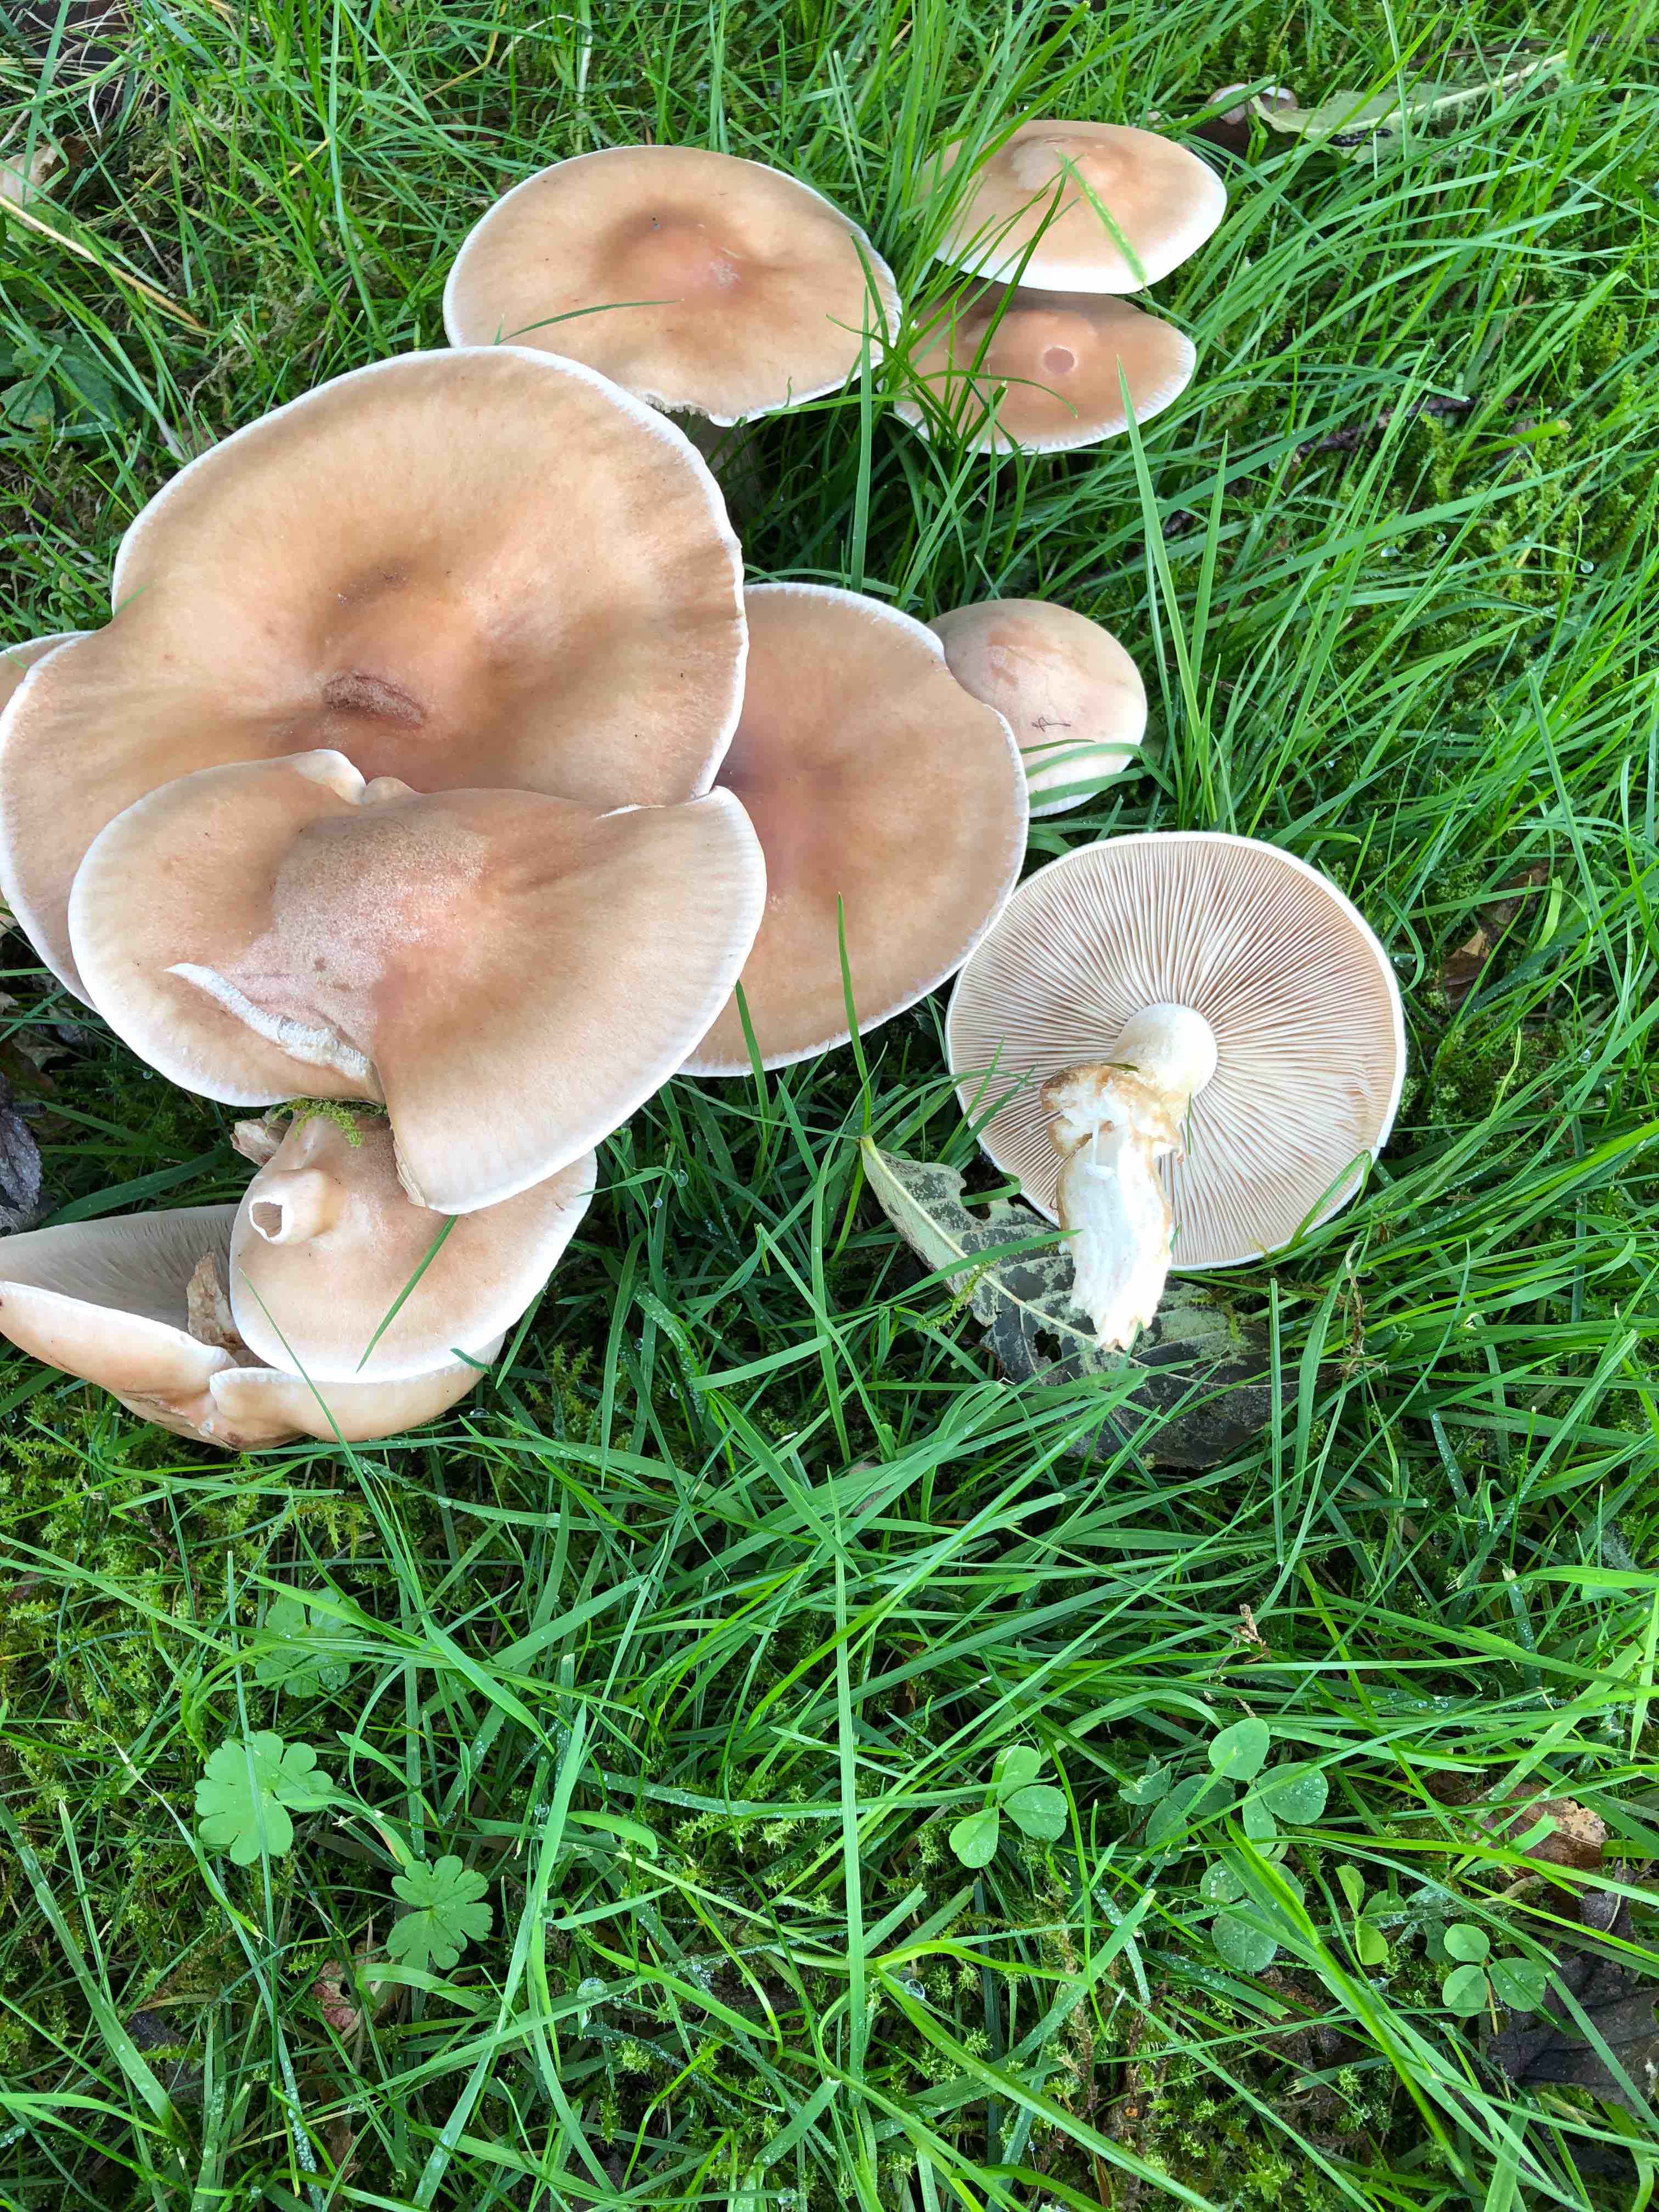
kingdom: Fungi
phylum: Basidiomycota
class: Agaricomycetes
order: Agaricales
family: Tricholomataceae
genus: Lepista
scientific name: Lepista
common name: hekseringshat
